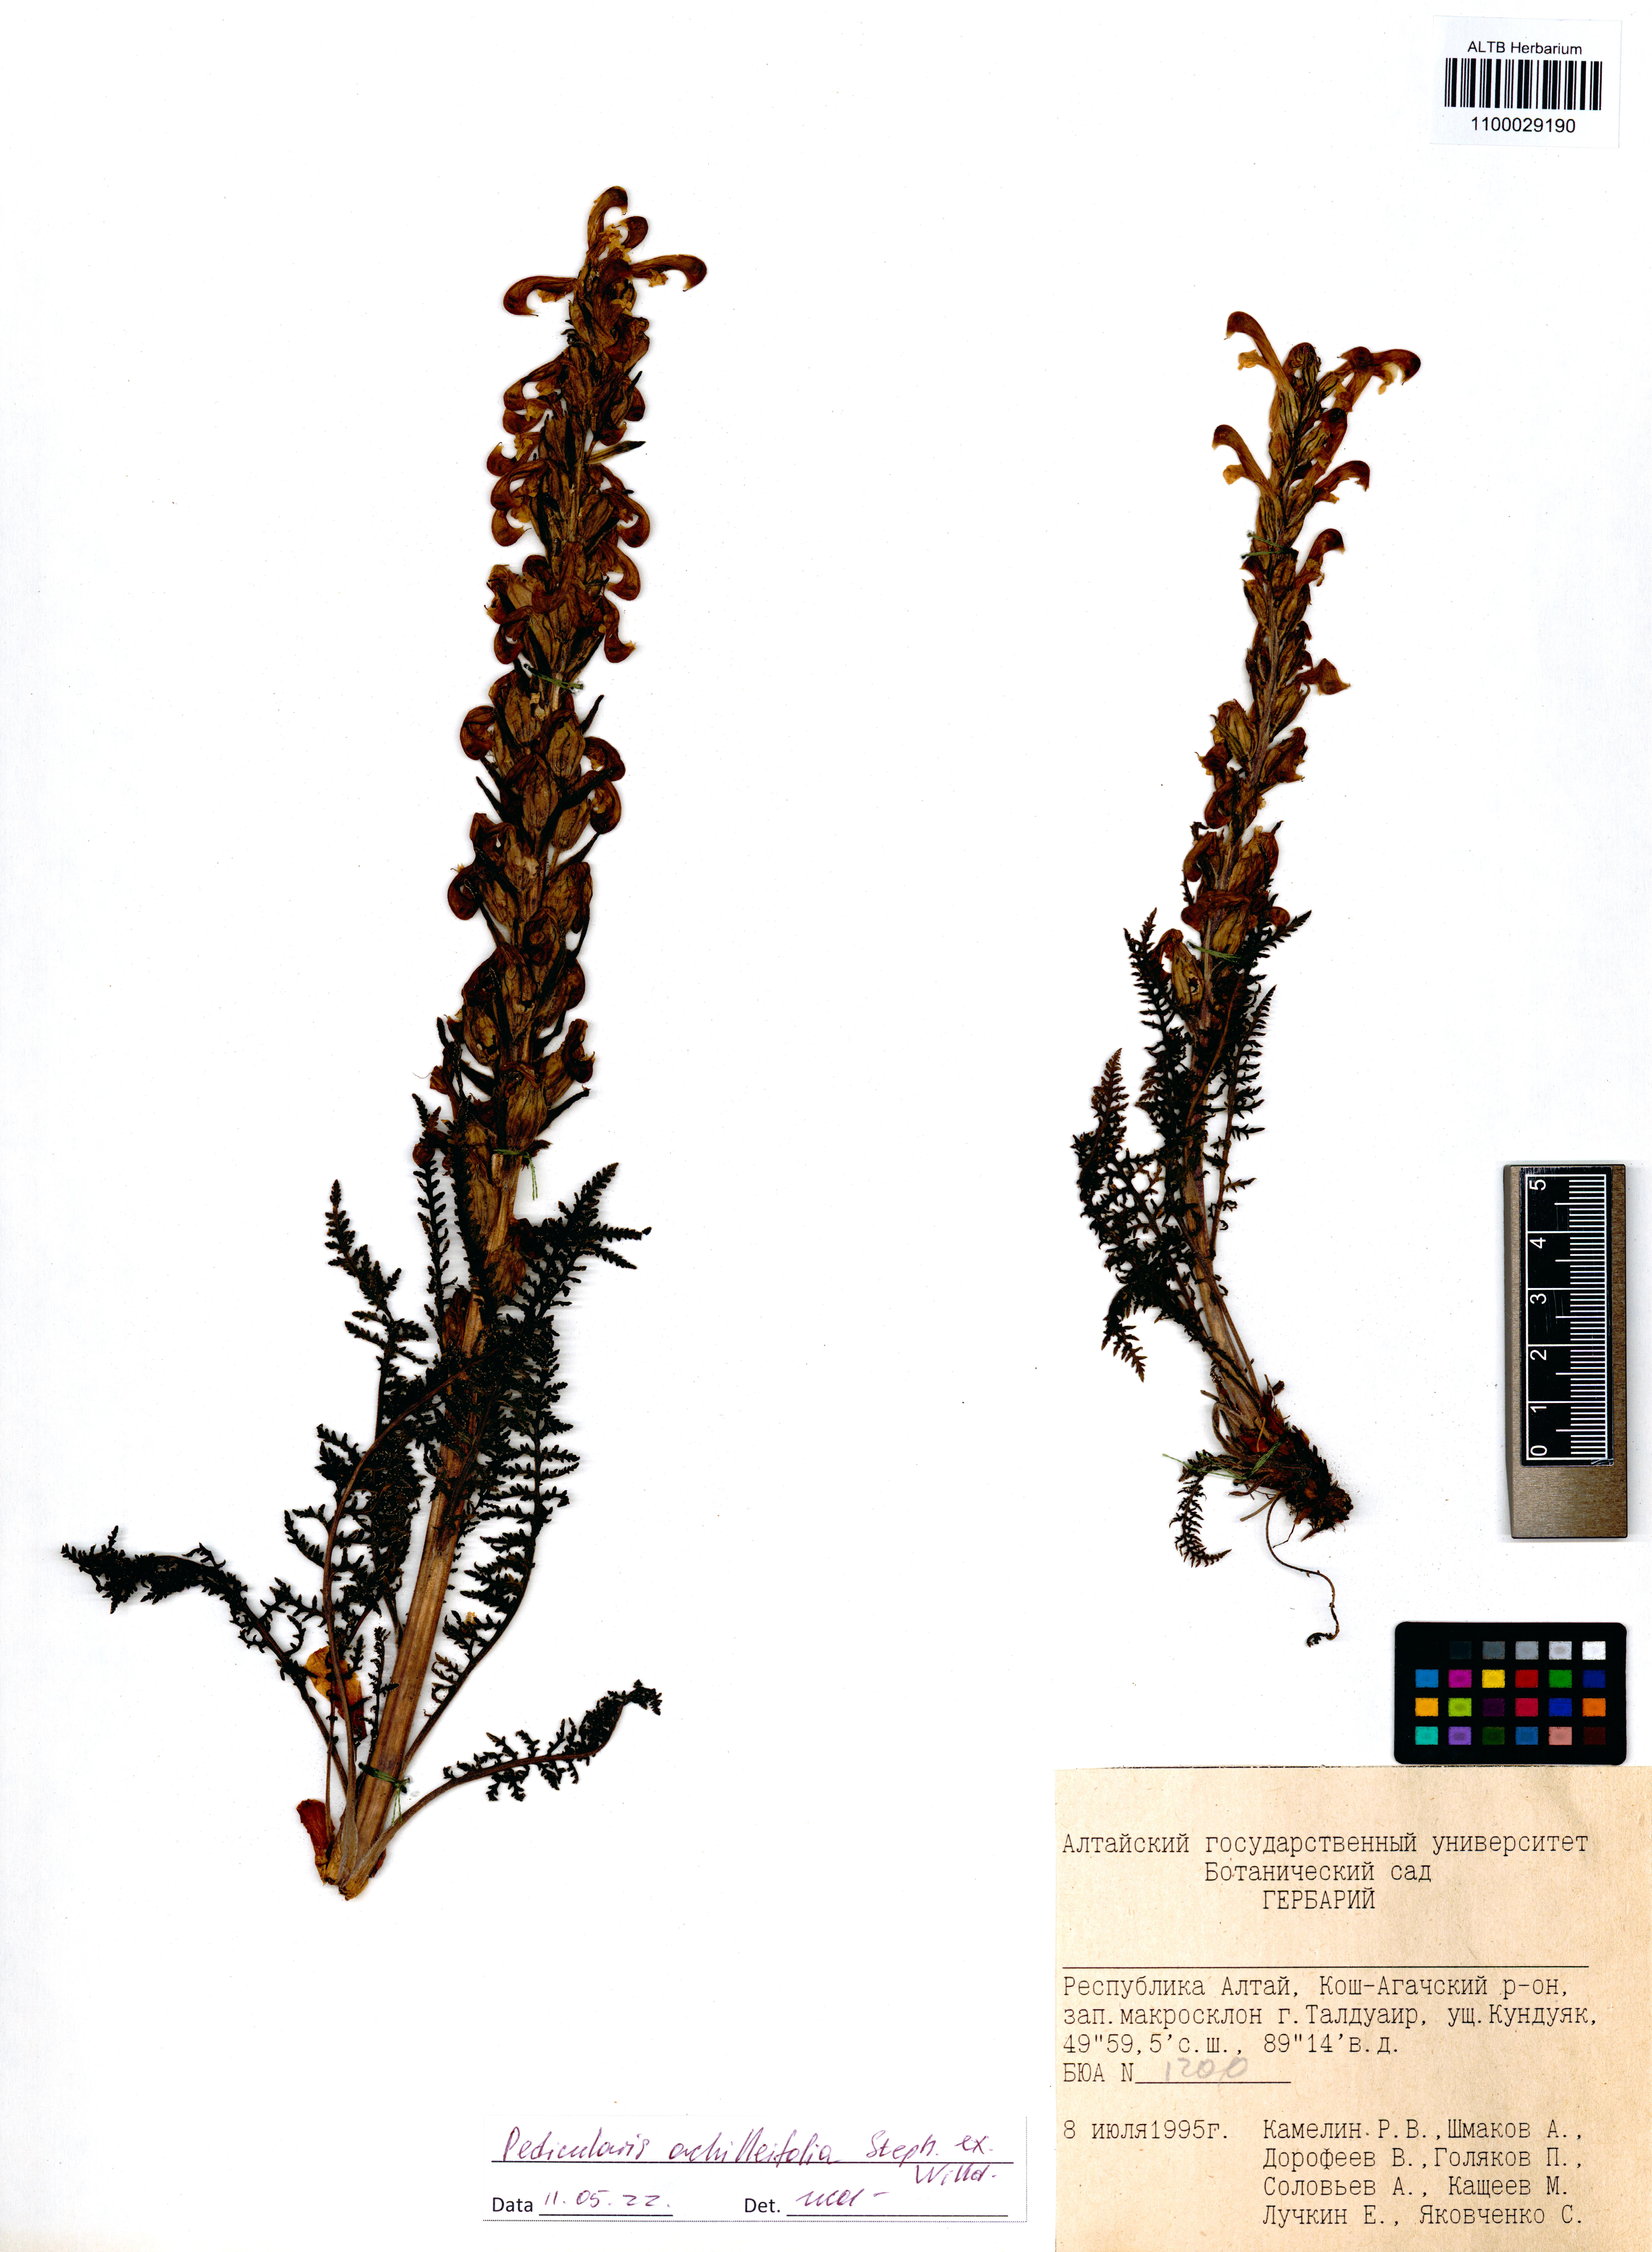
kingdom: Plantae
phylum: Tracheophyta
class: Magnoliopsida
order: Lamiales
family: Orobanchaceae
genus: Pedicularis
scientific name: Pedicularis achilleifolia
